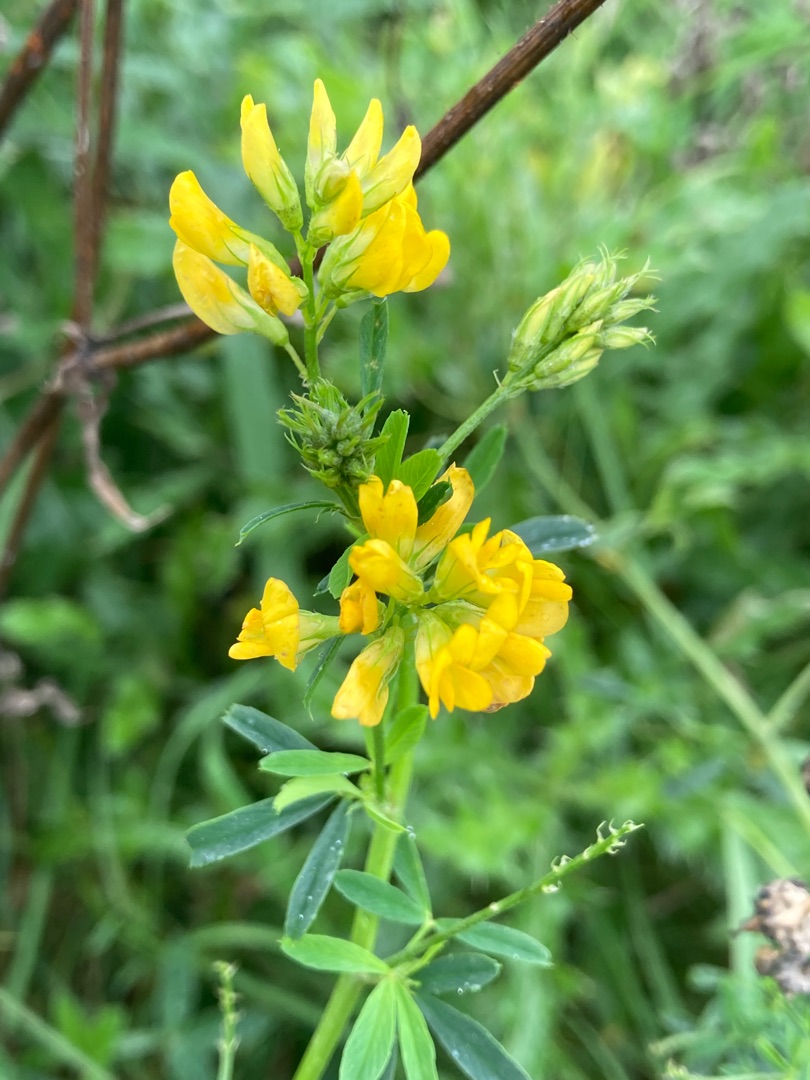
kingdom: Plantae
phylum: Tracheophyta
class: Magnoliopsida
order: Fabales
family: Fabaceae
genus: Medicago
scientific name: Medicago falcata
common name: Segl-sneglebælg
